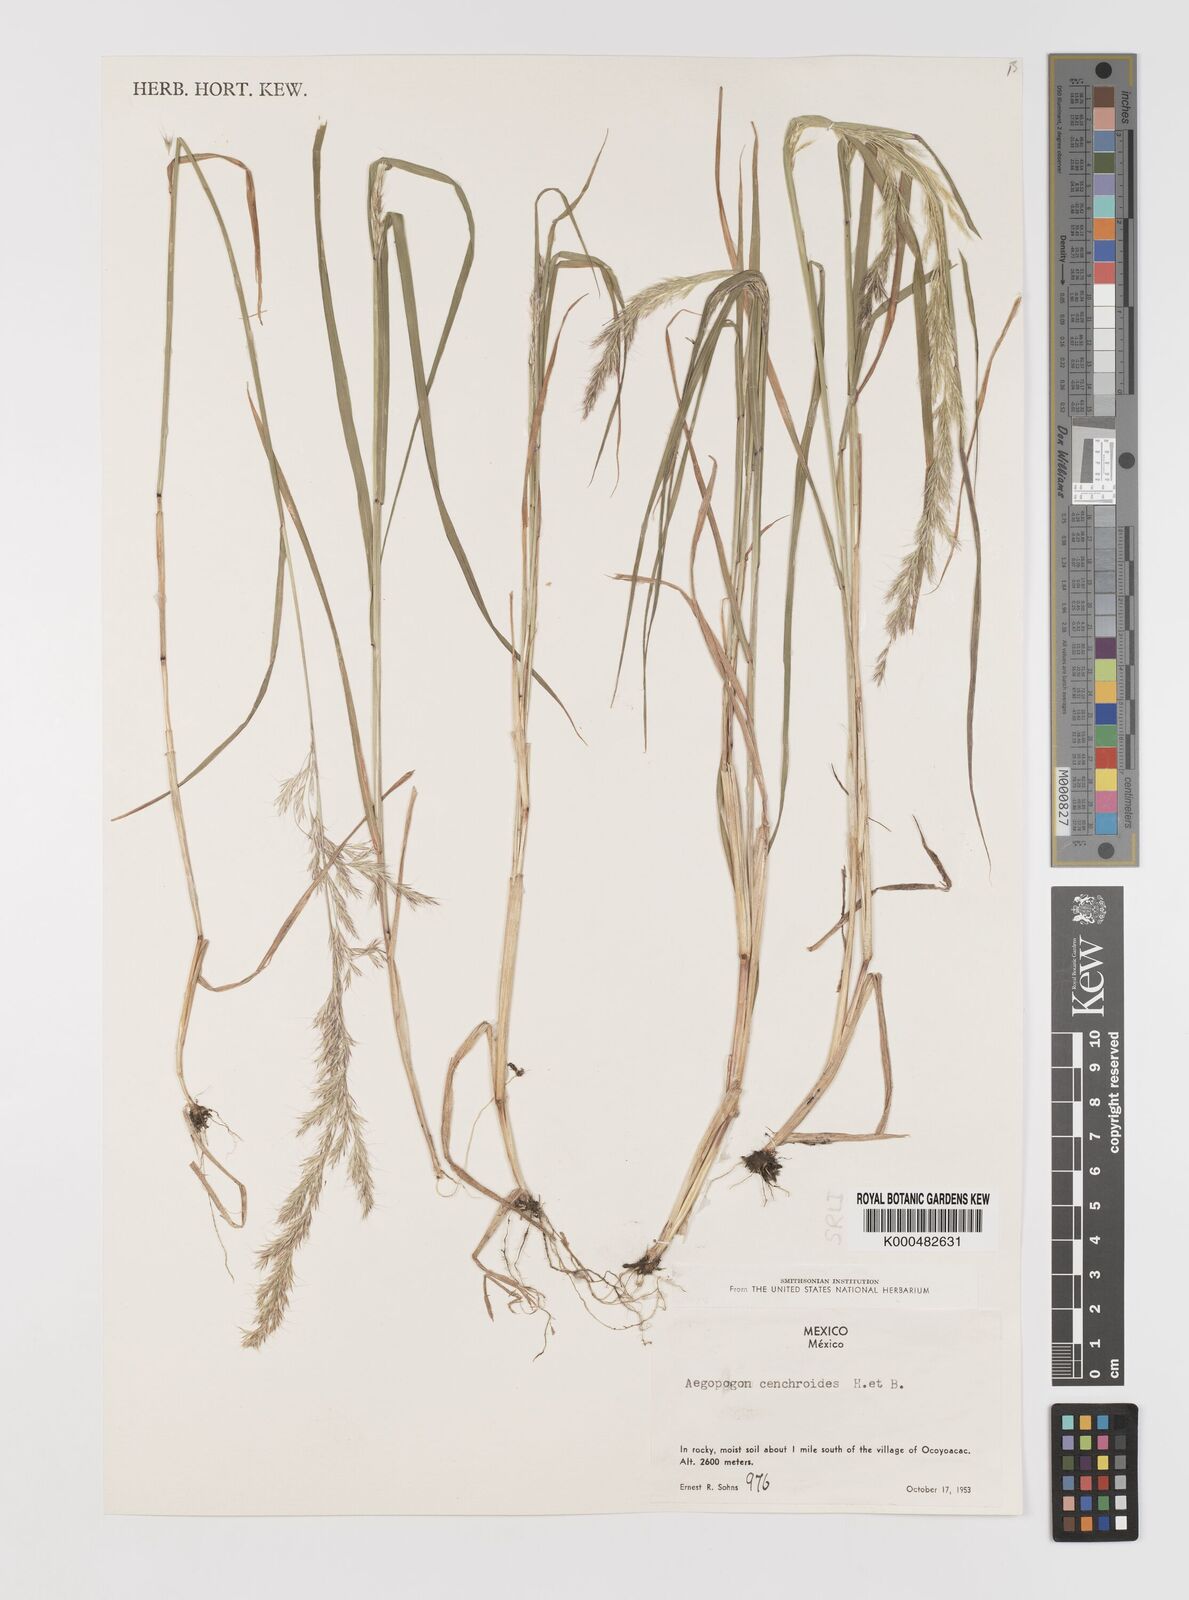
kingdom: Plantae
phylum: Tracheophyta
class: Liliopsida
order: Poales
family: Poaceae
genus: Muhlenbergia
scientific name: Muhlenbergia
